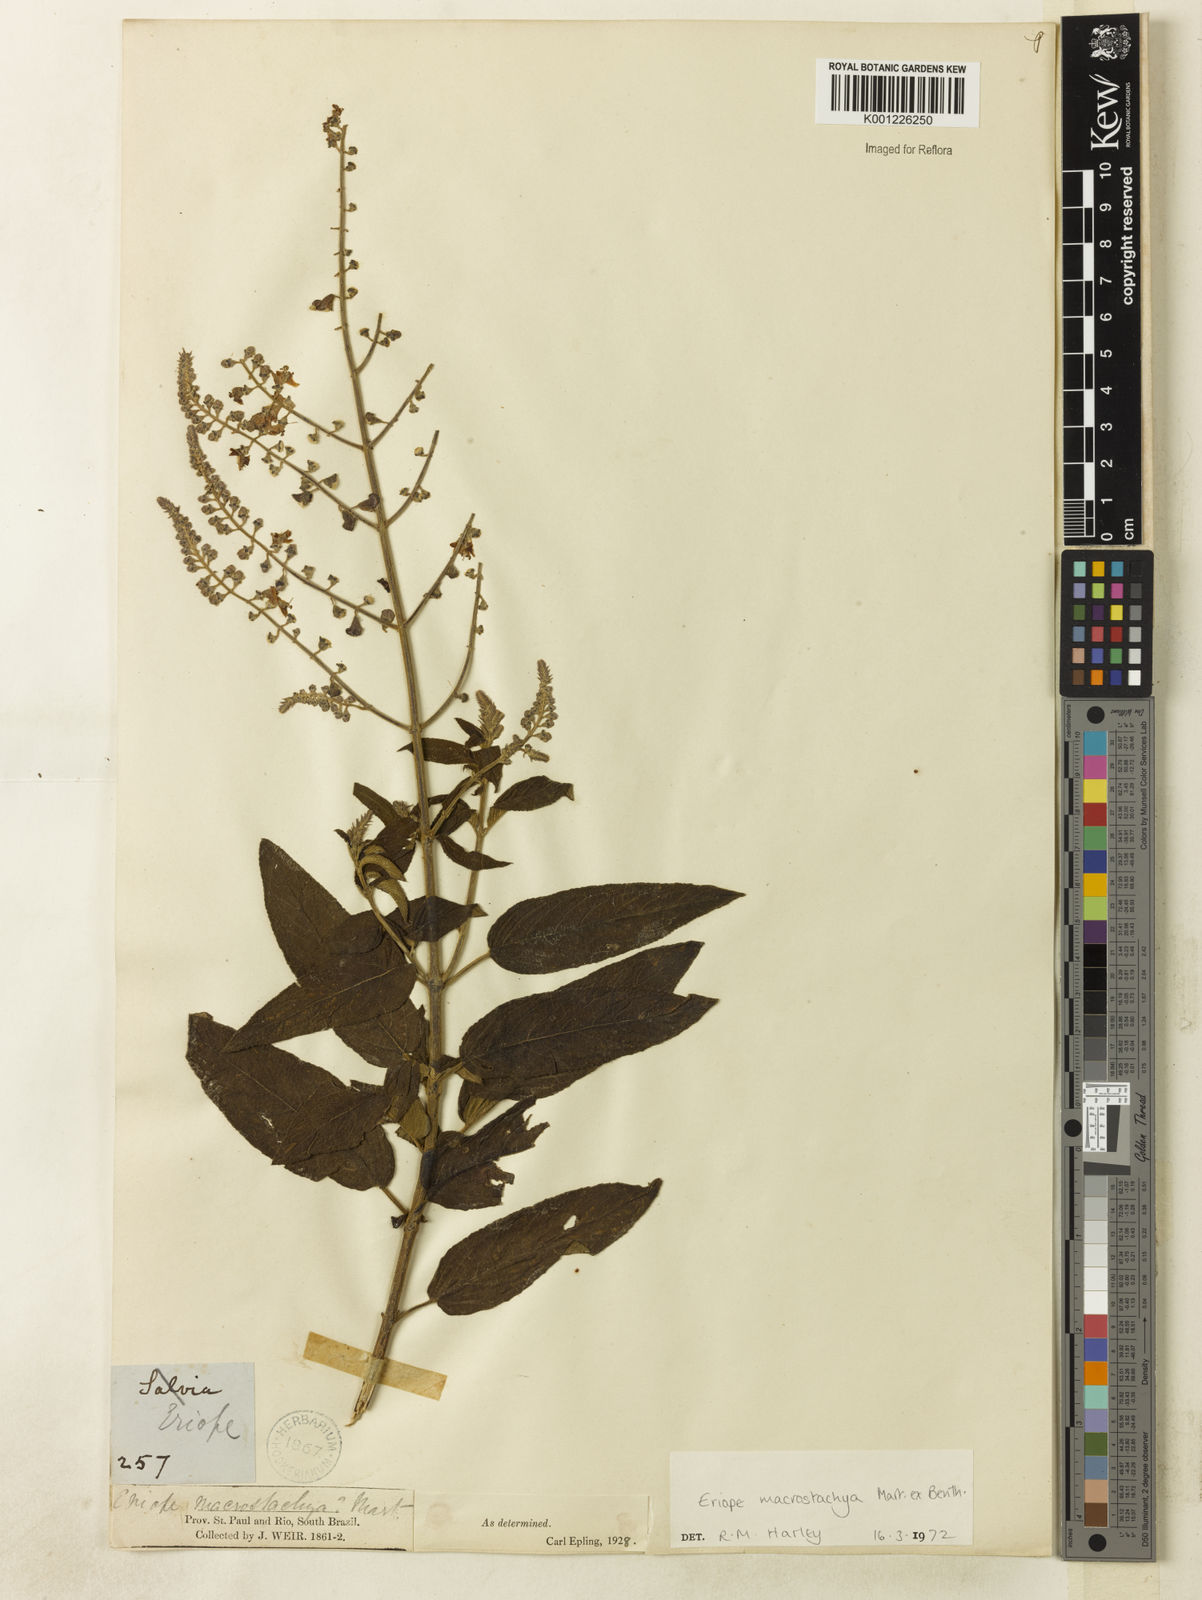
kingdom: Plantae
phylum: Tracheophyta
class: Magnoliopsida
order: Lamiales
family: Lamiaceae
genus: Eriope
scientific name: Eriope macrostachya
